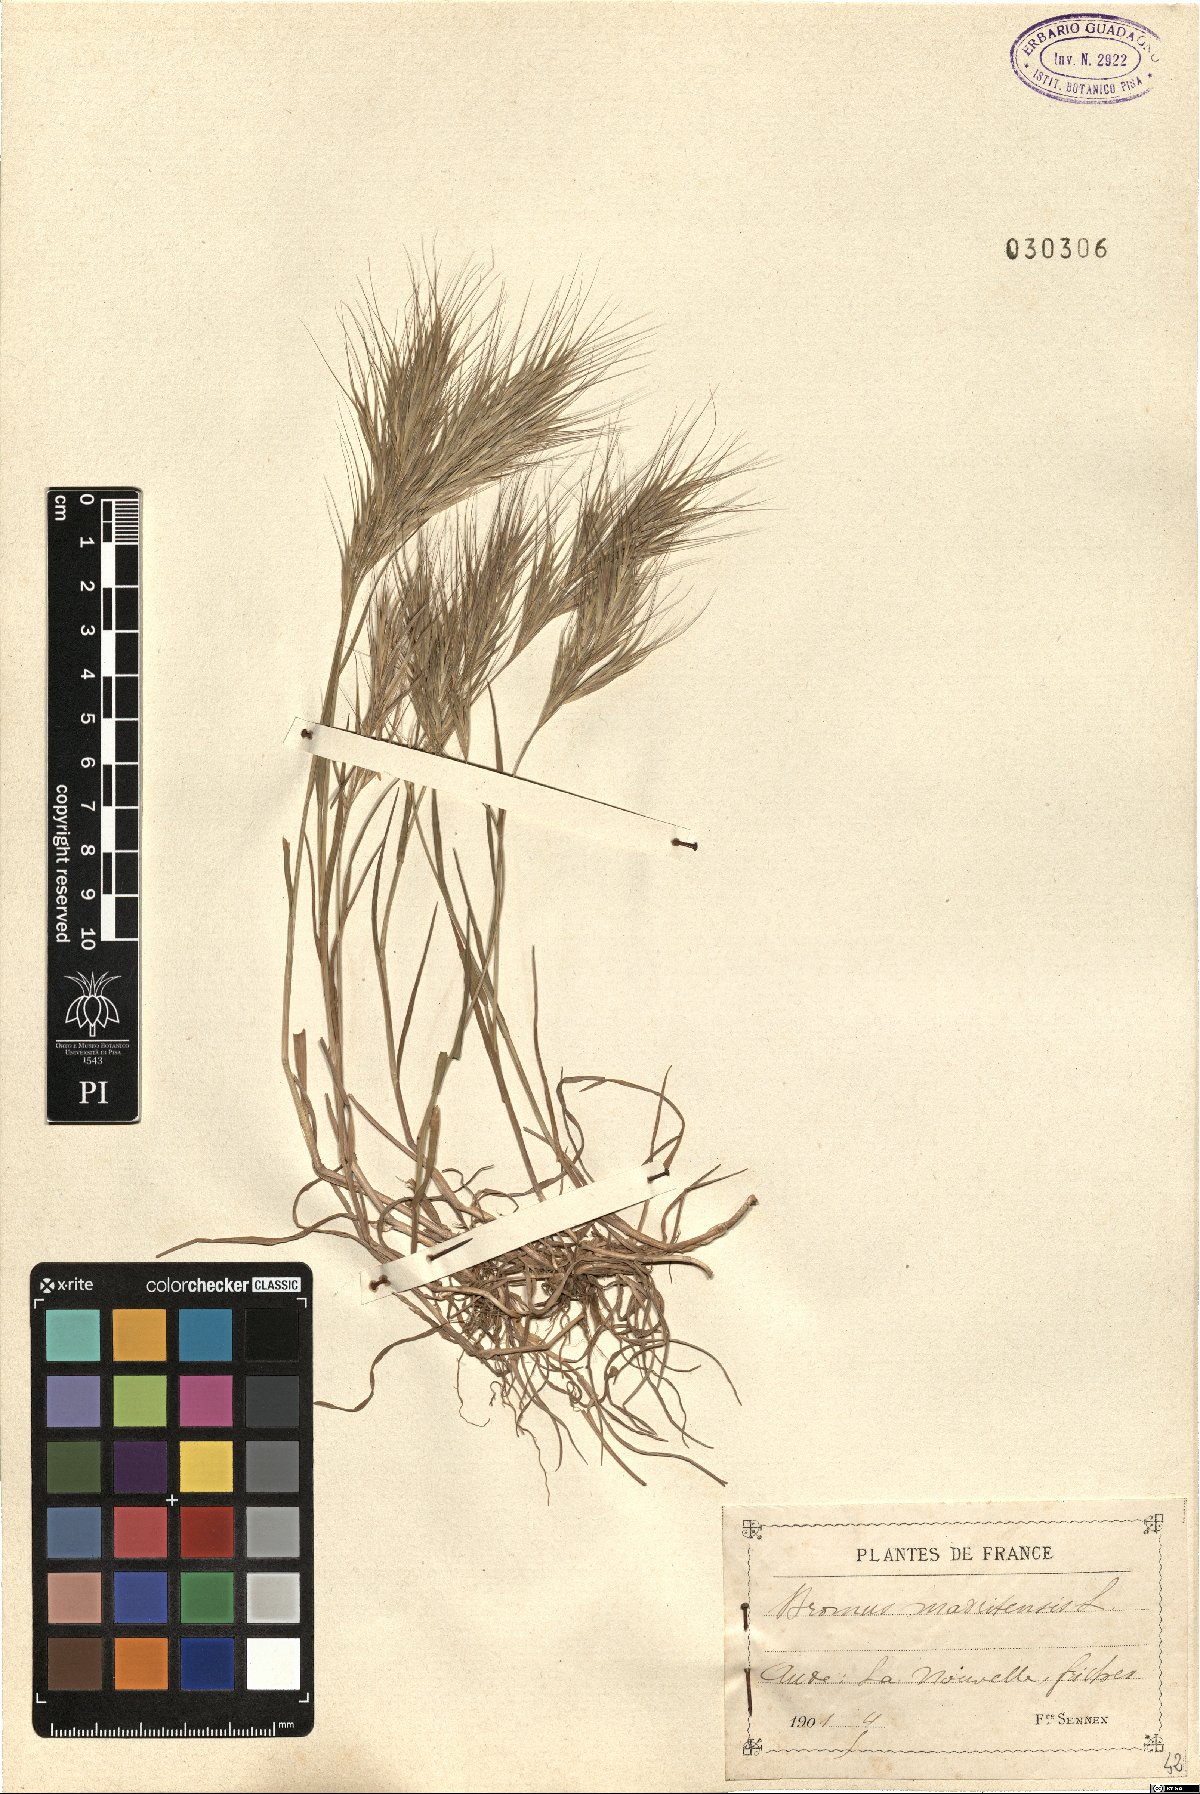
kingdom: Plantae
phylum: Tracheophyta
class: Liliopsida
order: Poales
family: Poaceae
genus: Bromus
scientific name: Bromus madritensis
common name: Compact brome
